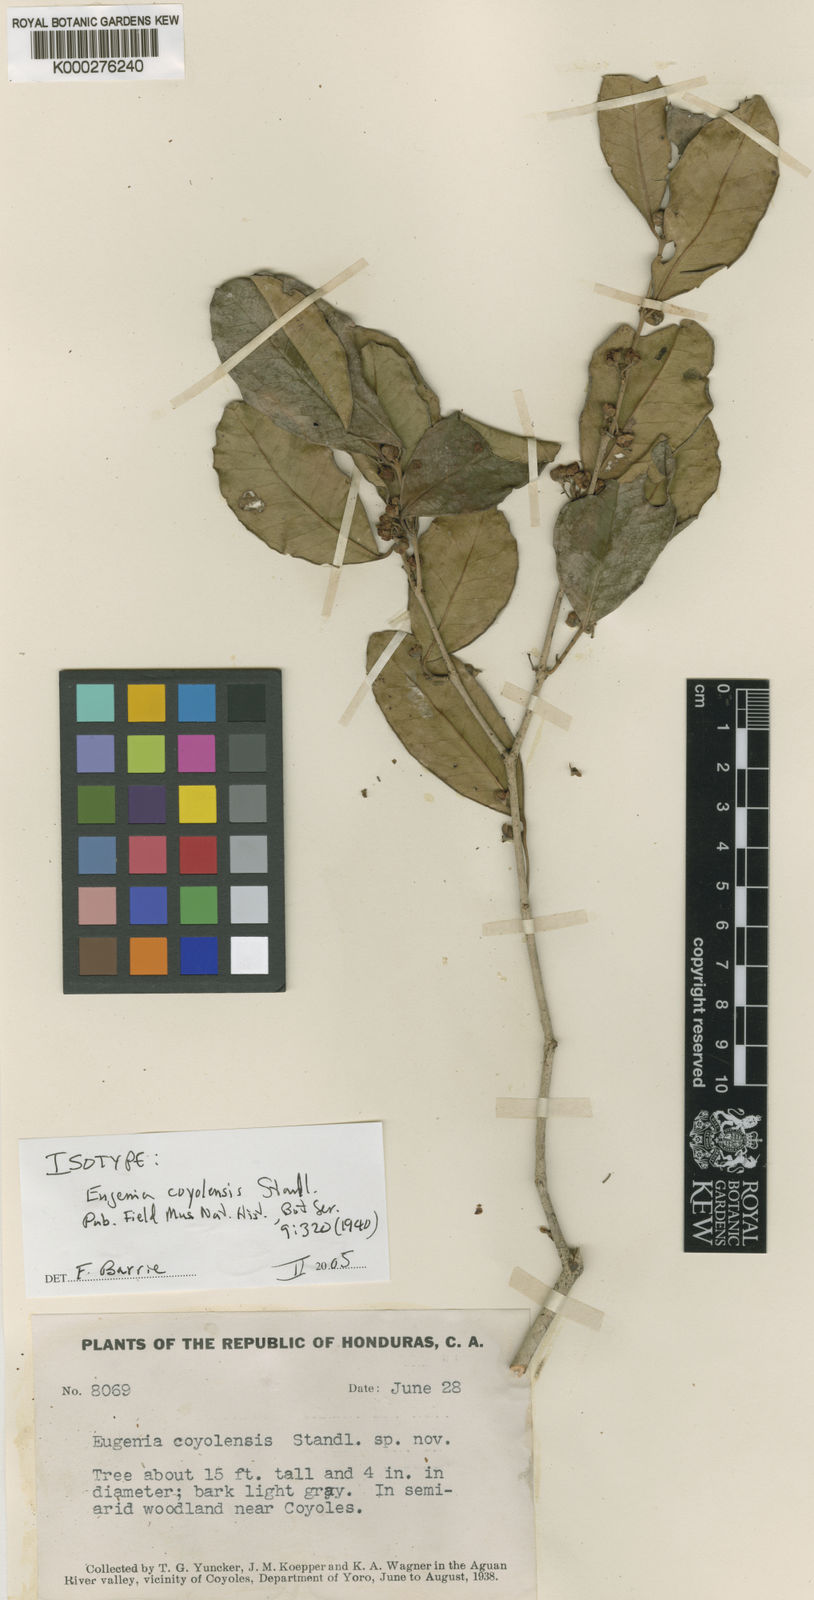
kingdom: Plantae
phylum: Tracheophyta
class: Magnoliopsida
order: Myrtales
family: Myrtaceae
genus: Eugenia
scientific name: Eugenia coyolensis
